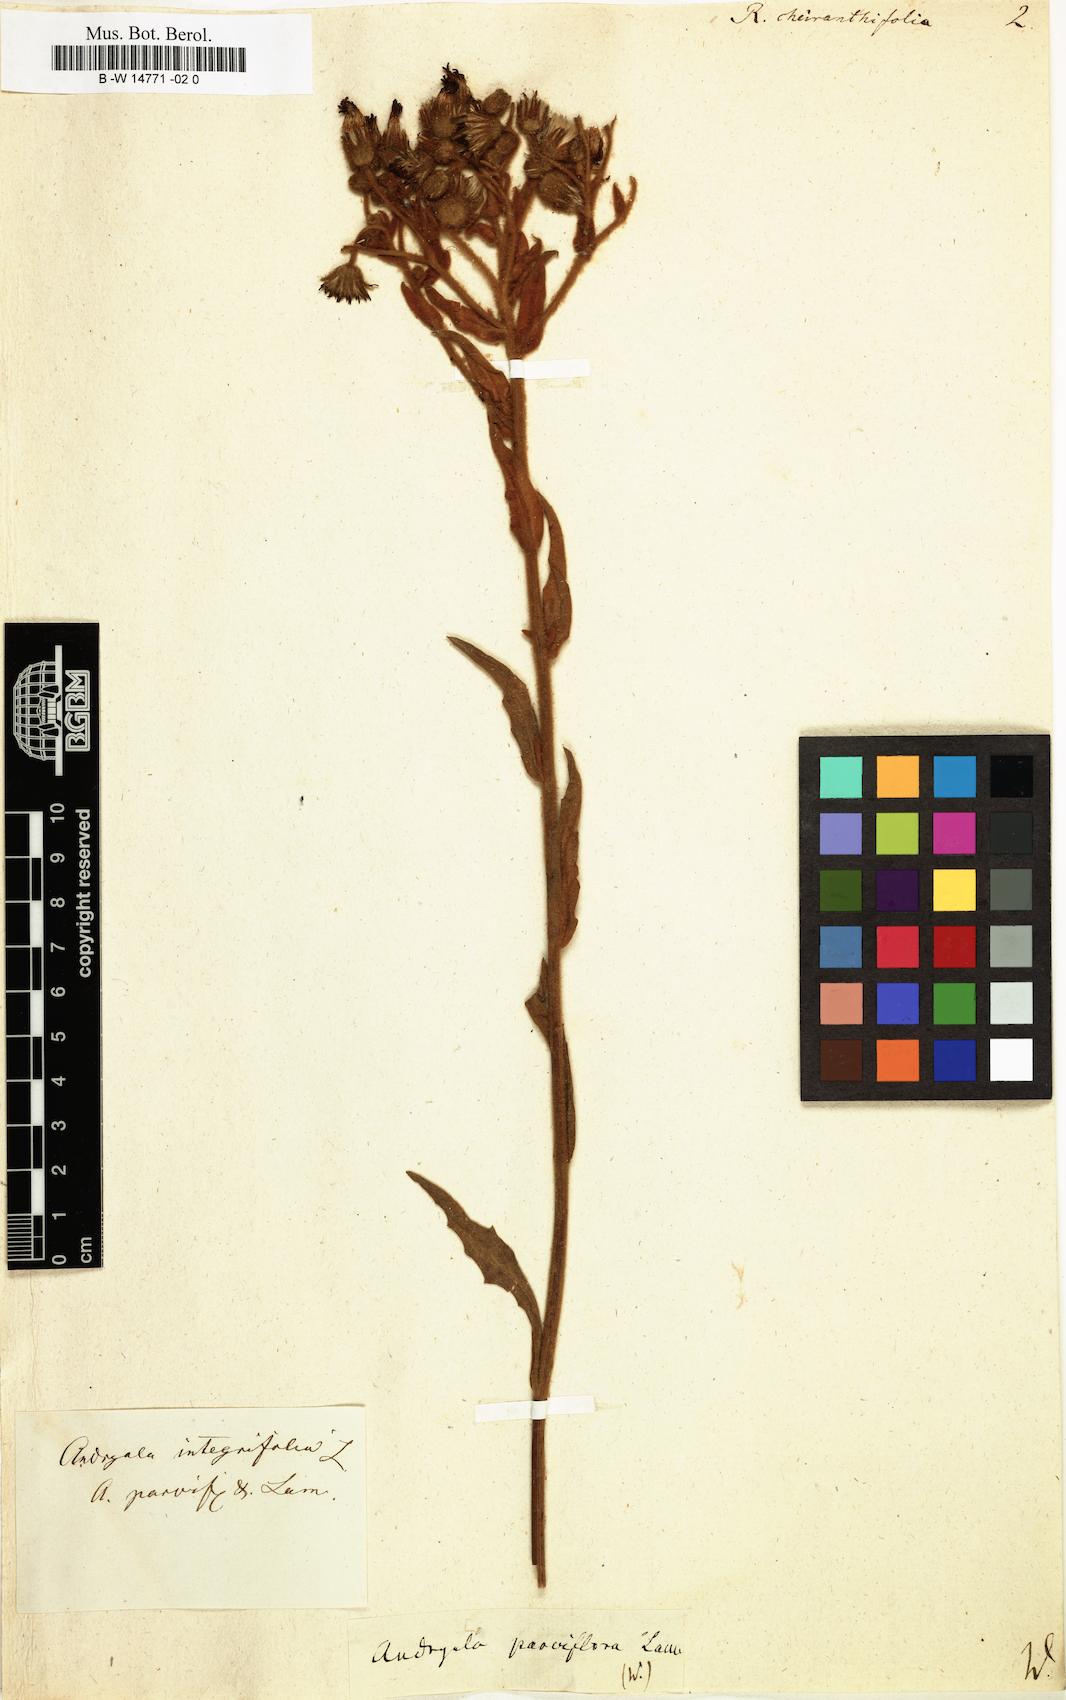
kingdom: Plantae
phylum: Tracheophyta
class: Magnoliopsida
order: Asterales
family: Asteraceae
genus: Andryala
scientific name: Andryala integrifolia
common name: Common andryala
